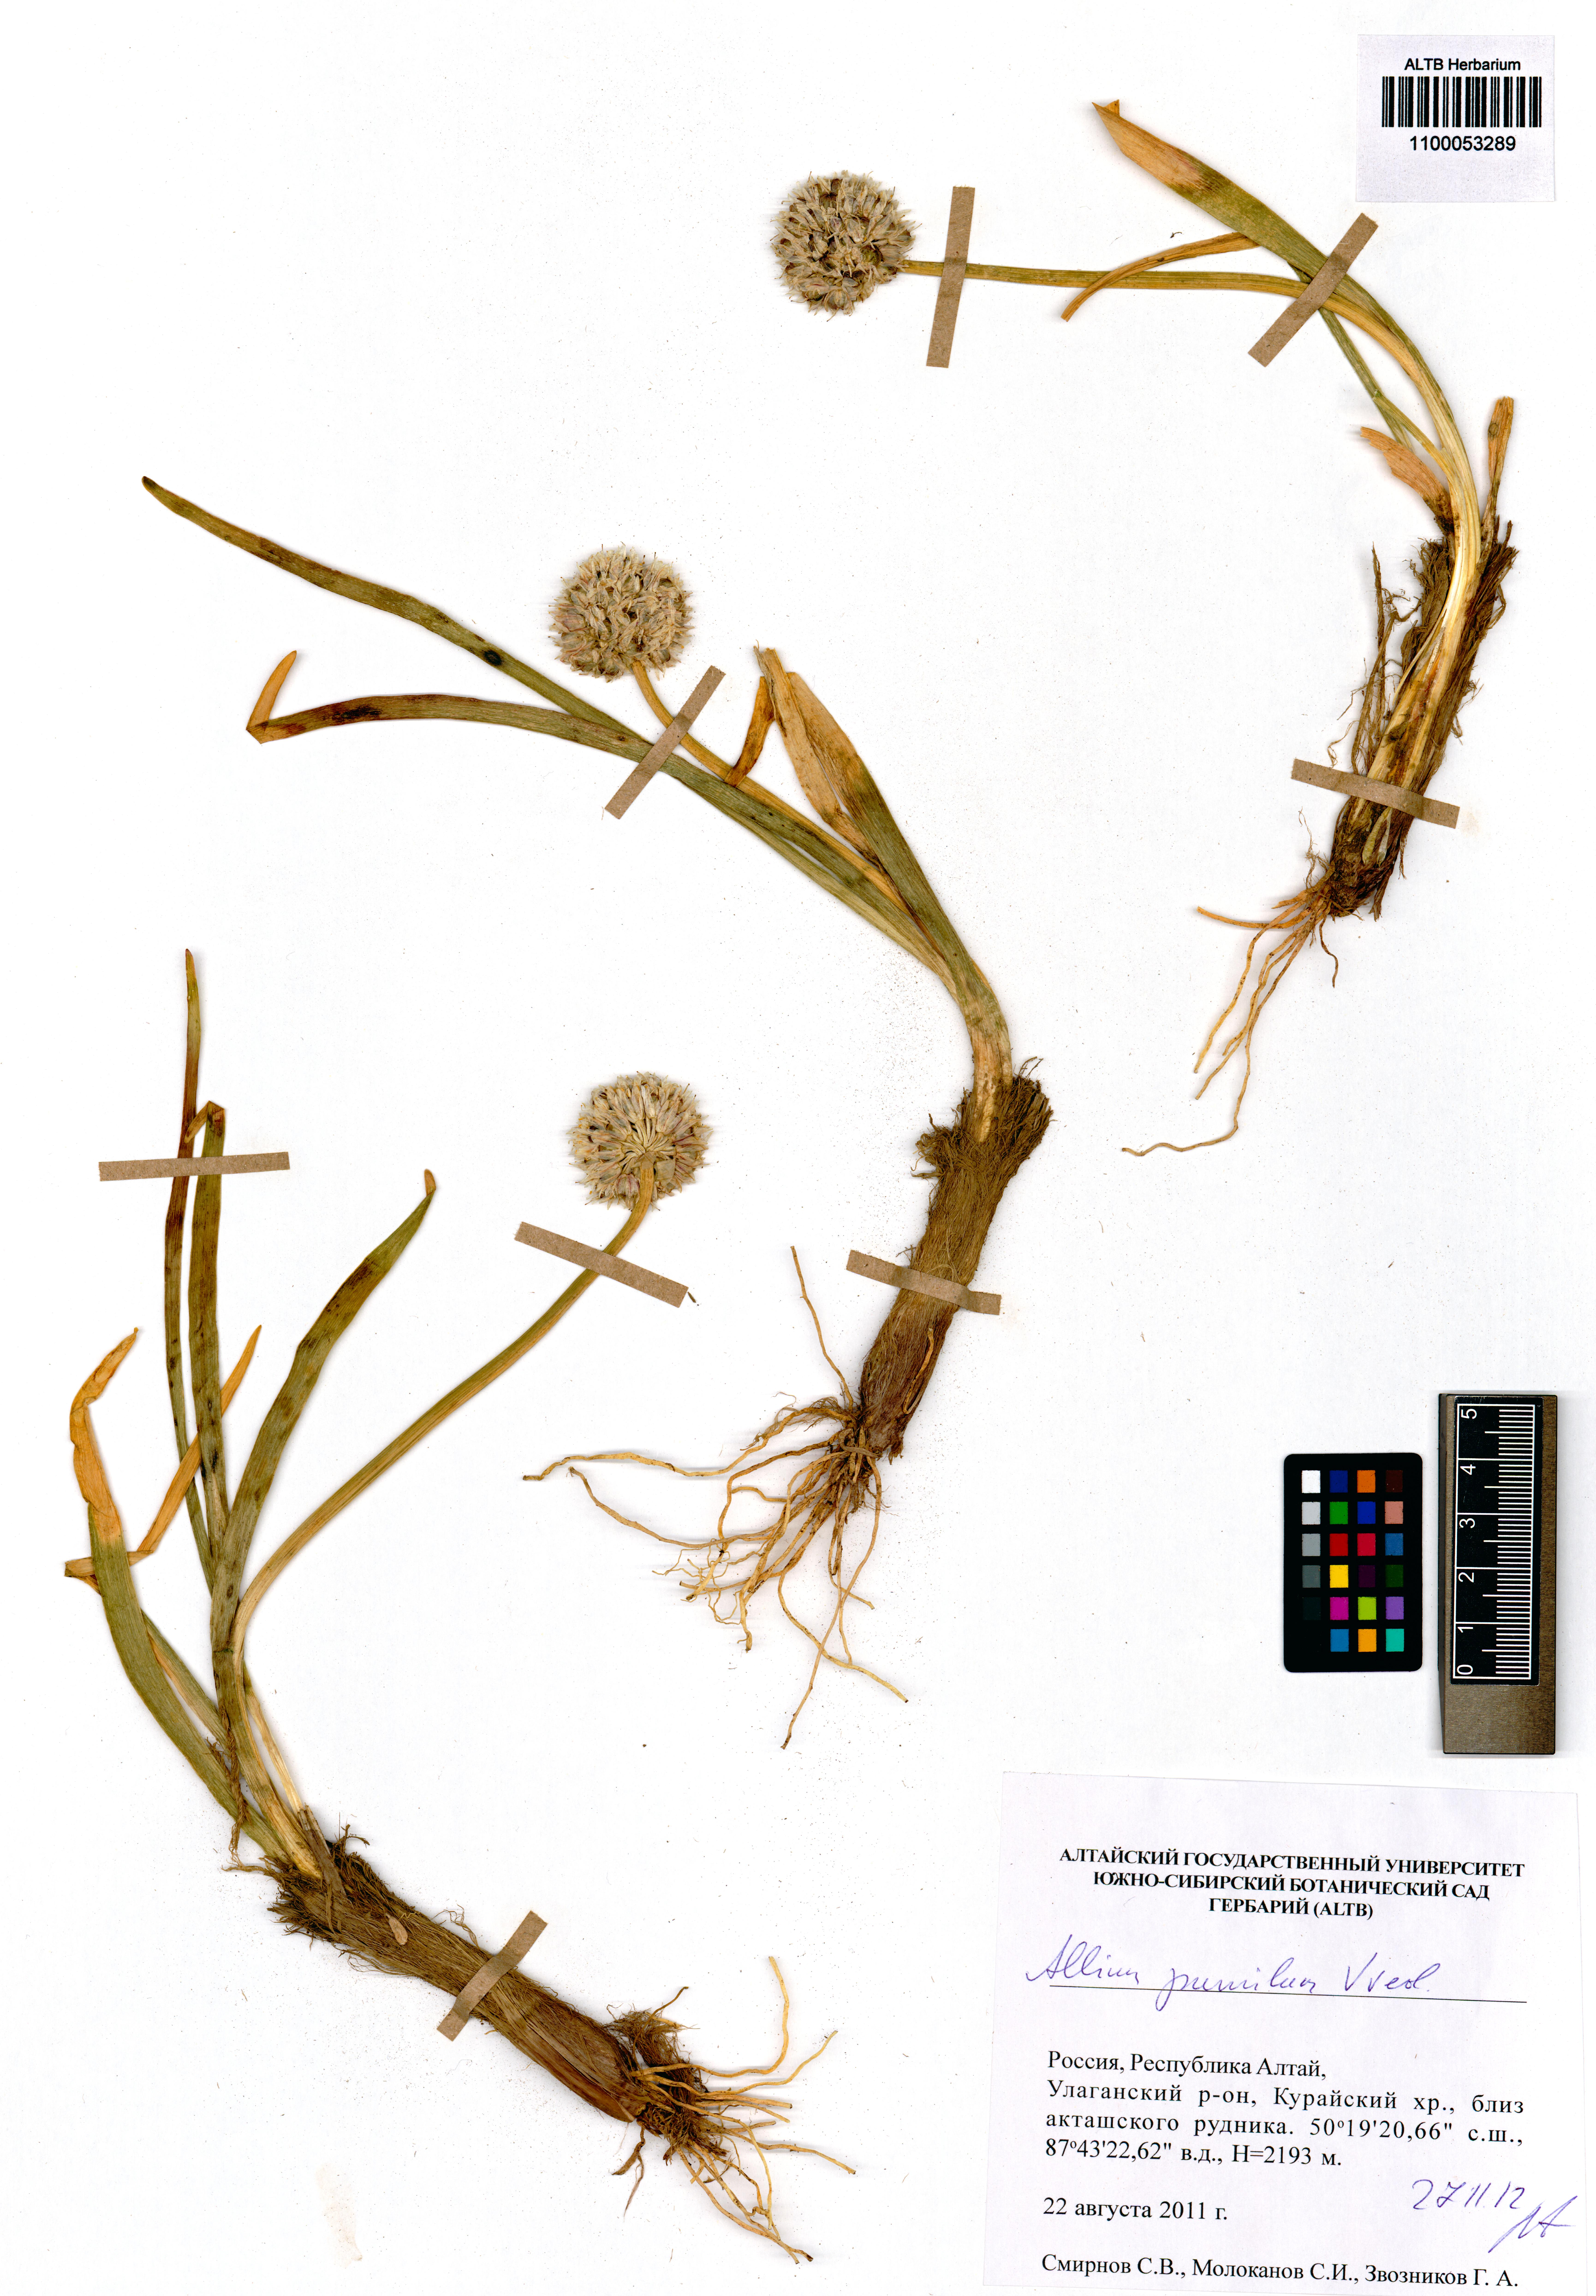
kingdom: Plantae
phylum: Tracheophyta
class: Liliopsida
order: Asparagales
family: Amaryllidaceae
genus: Allium
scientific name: Allium pumilum
